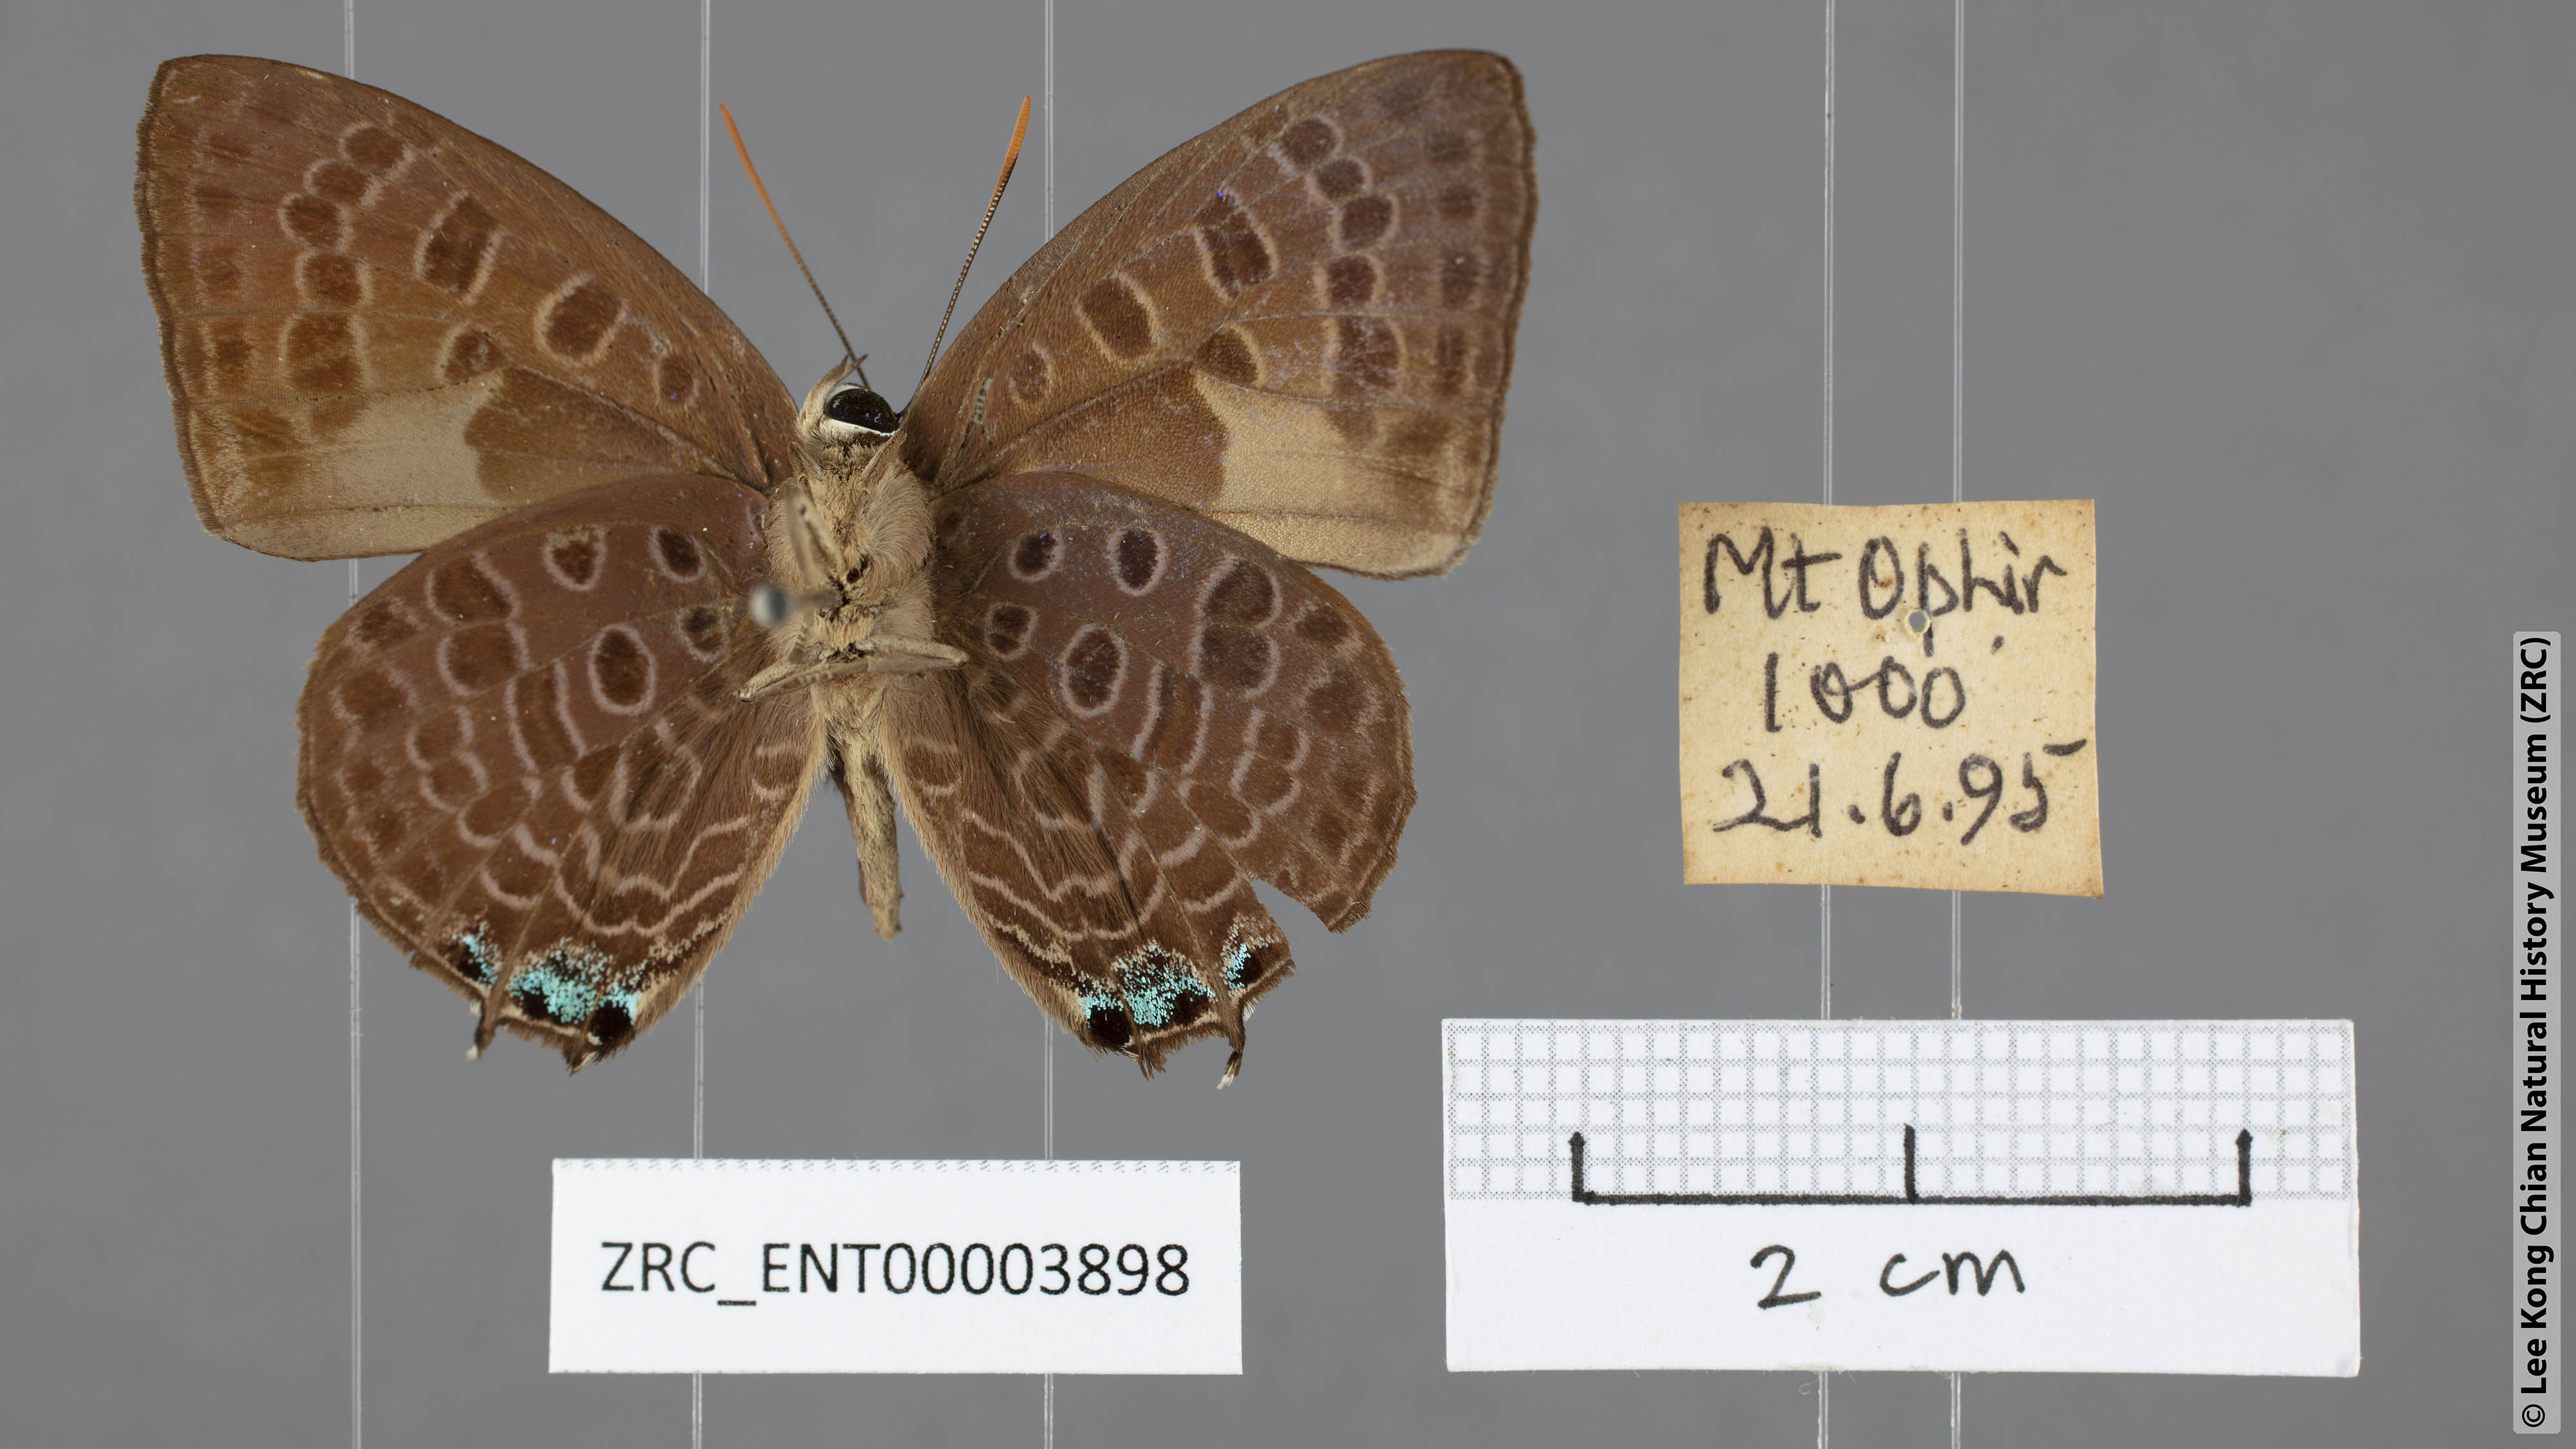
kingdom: Animalia
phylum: Arthropoda
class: Insecta
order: Lepidoptera
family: Lycaenidae
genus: Arhopala
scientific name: Arhopala corinda
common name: Ultramarine oakblue
